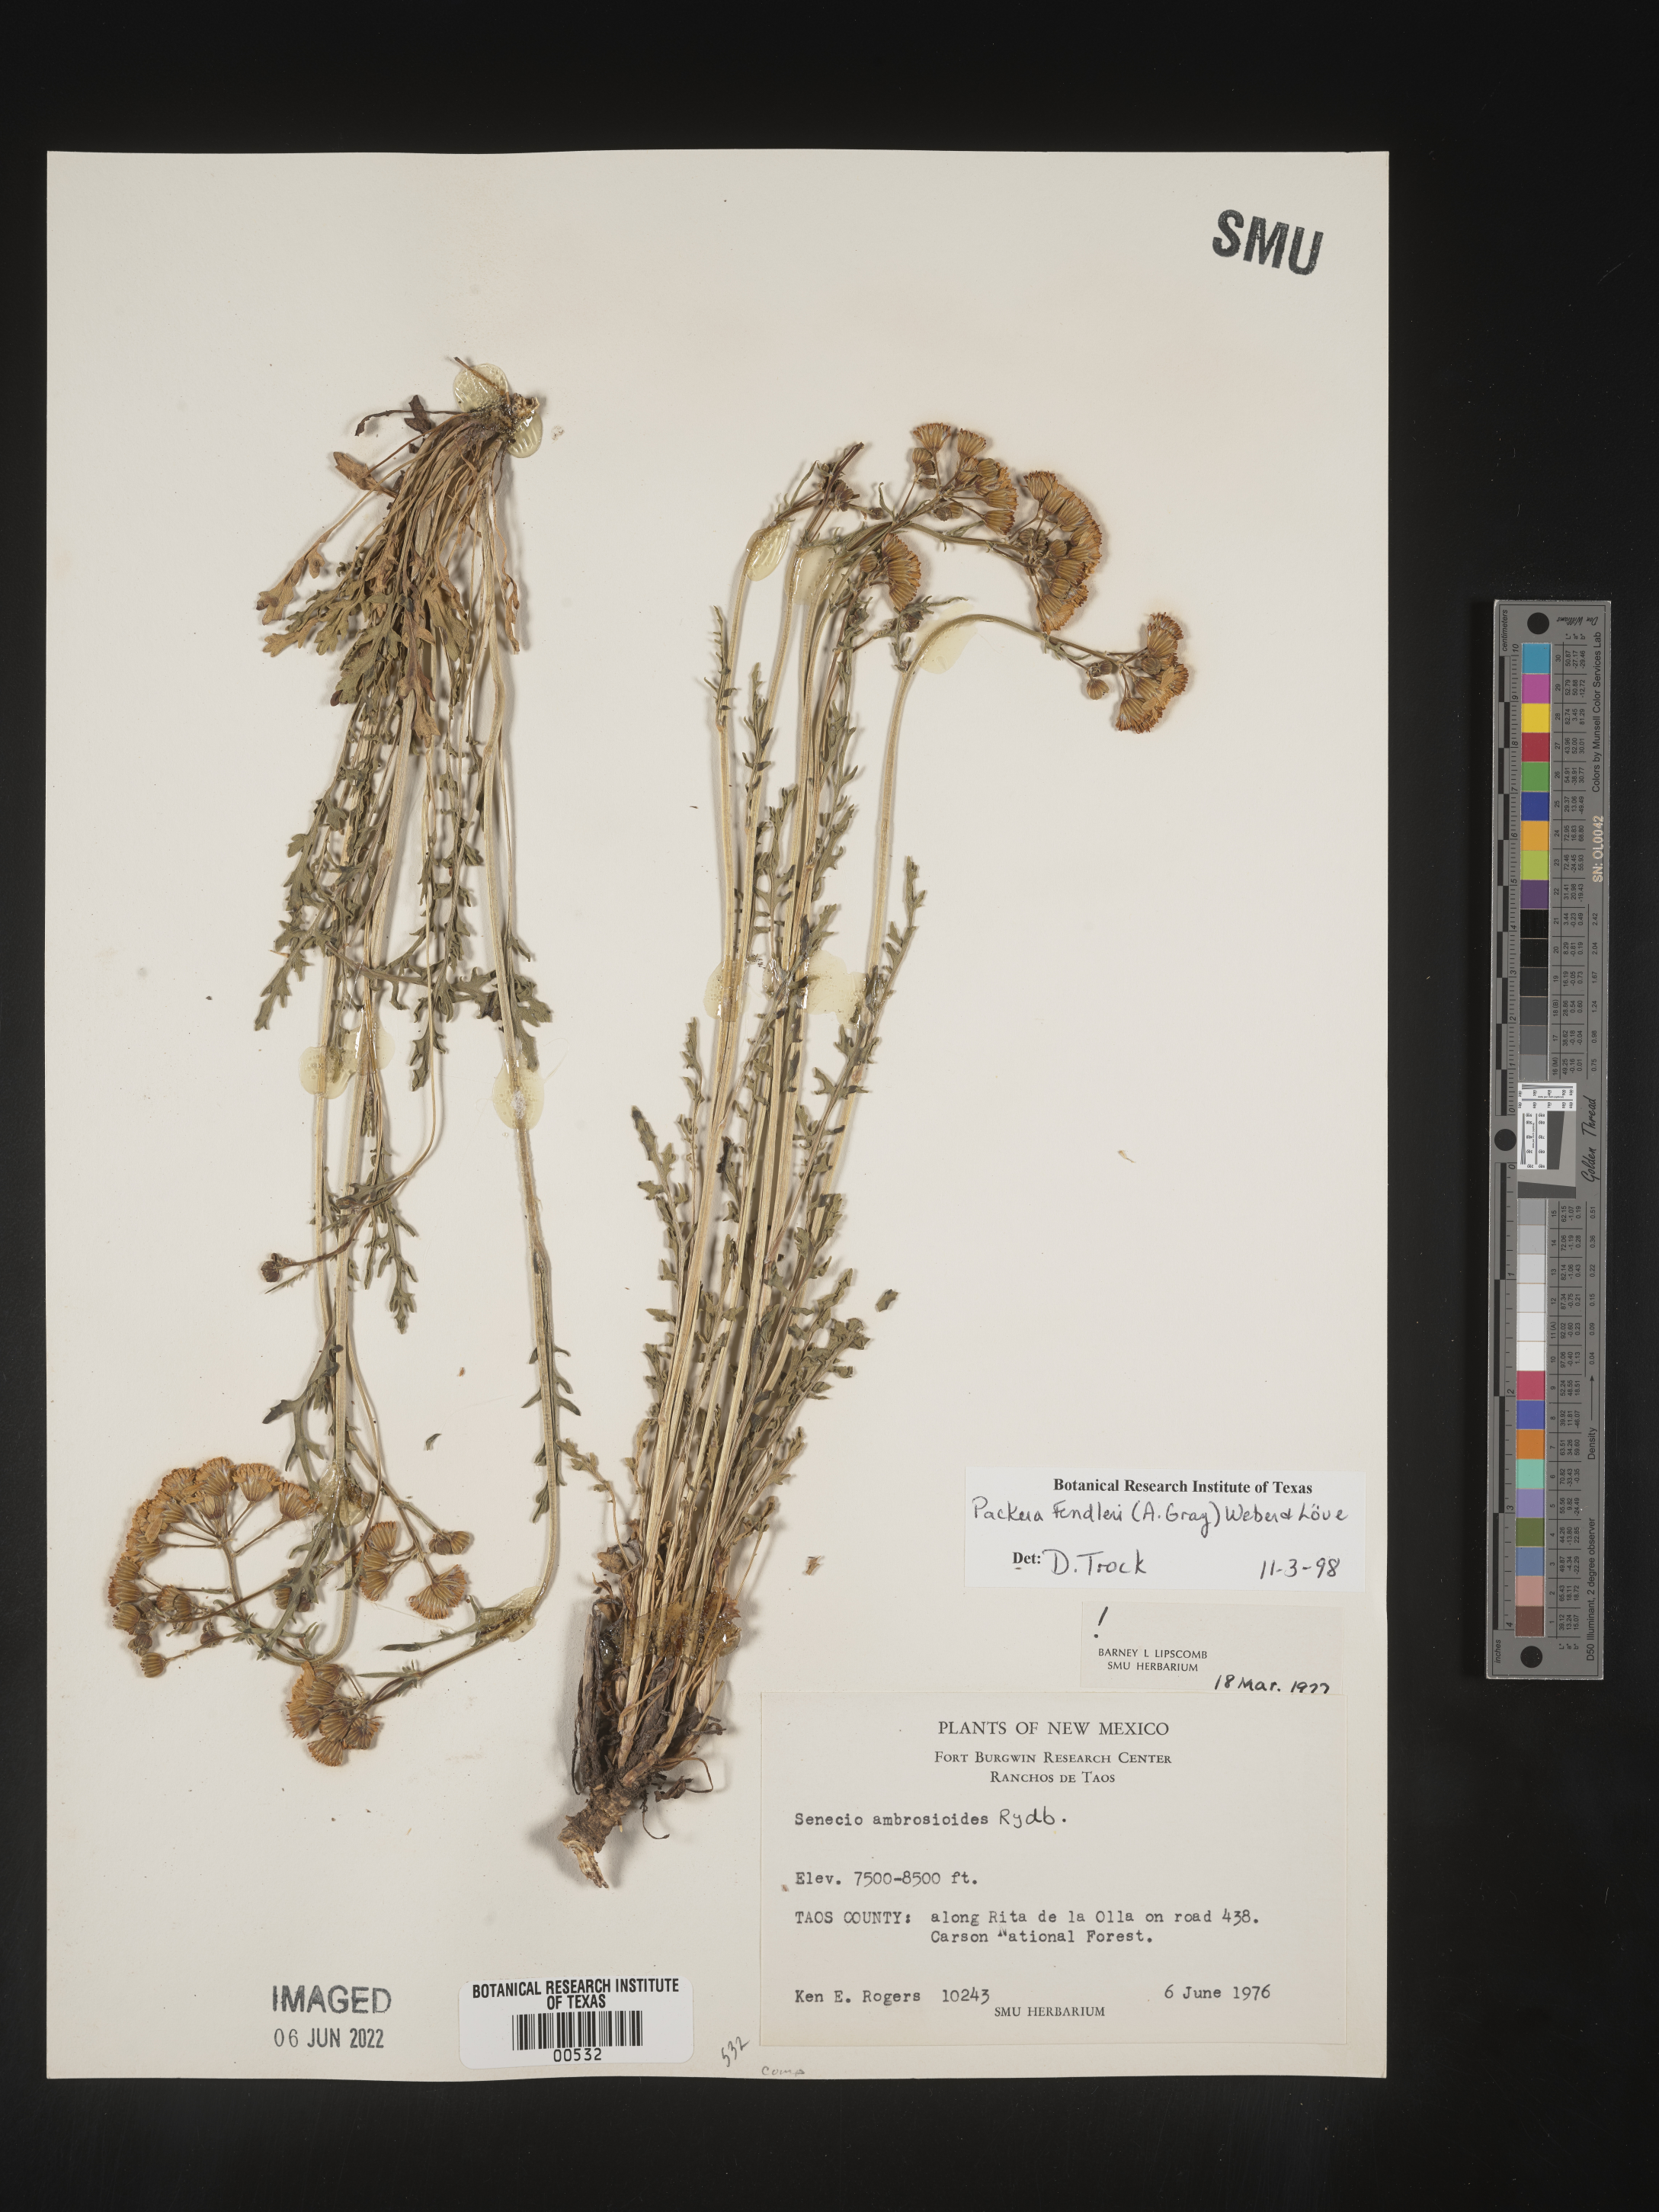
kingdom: Plantae
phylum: Tracheophyta
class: Magnoliopsida
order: Asterales
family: Asteraceae
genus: Packera
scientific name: Packera fendleri
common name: Notch-leaf butterweed
